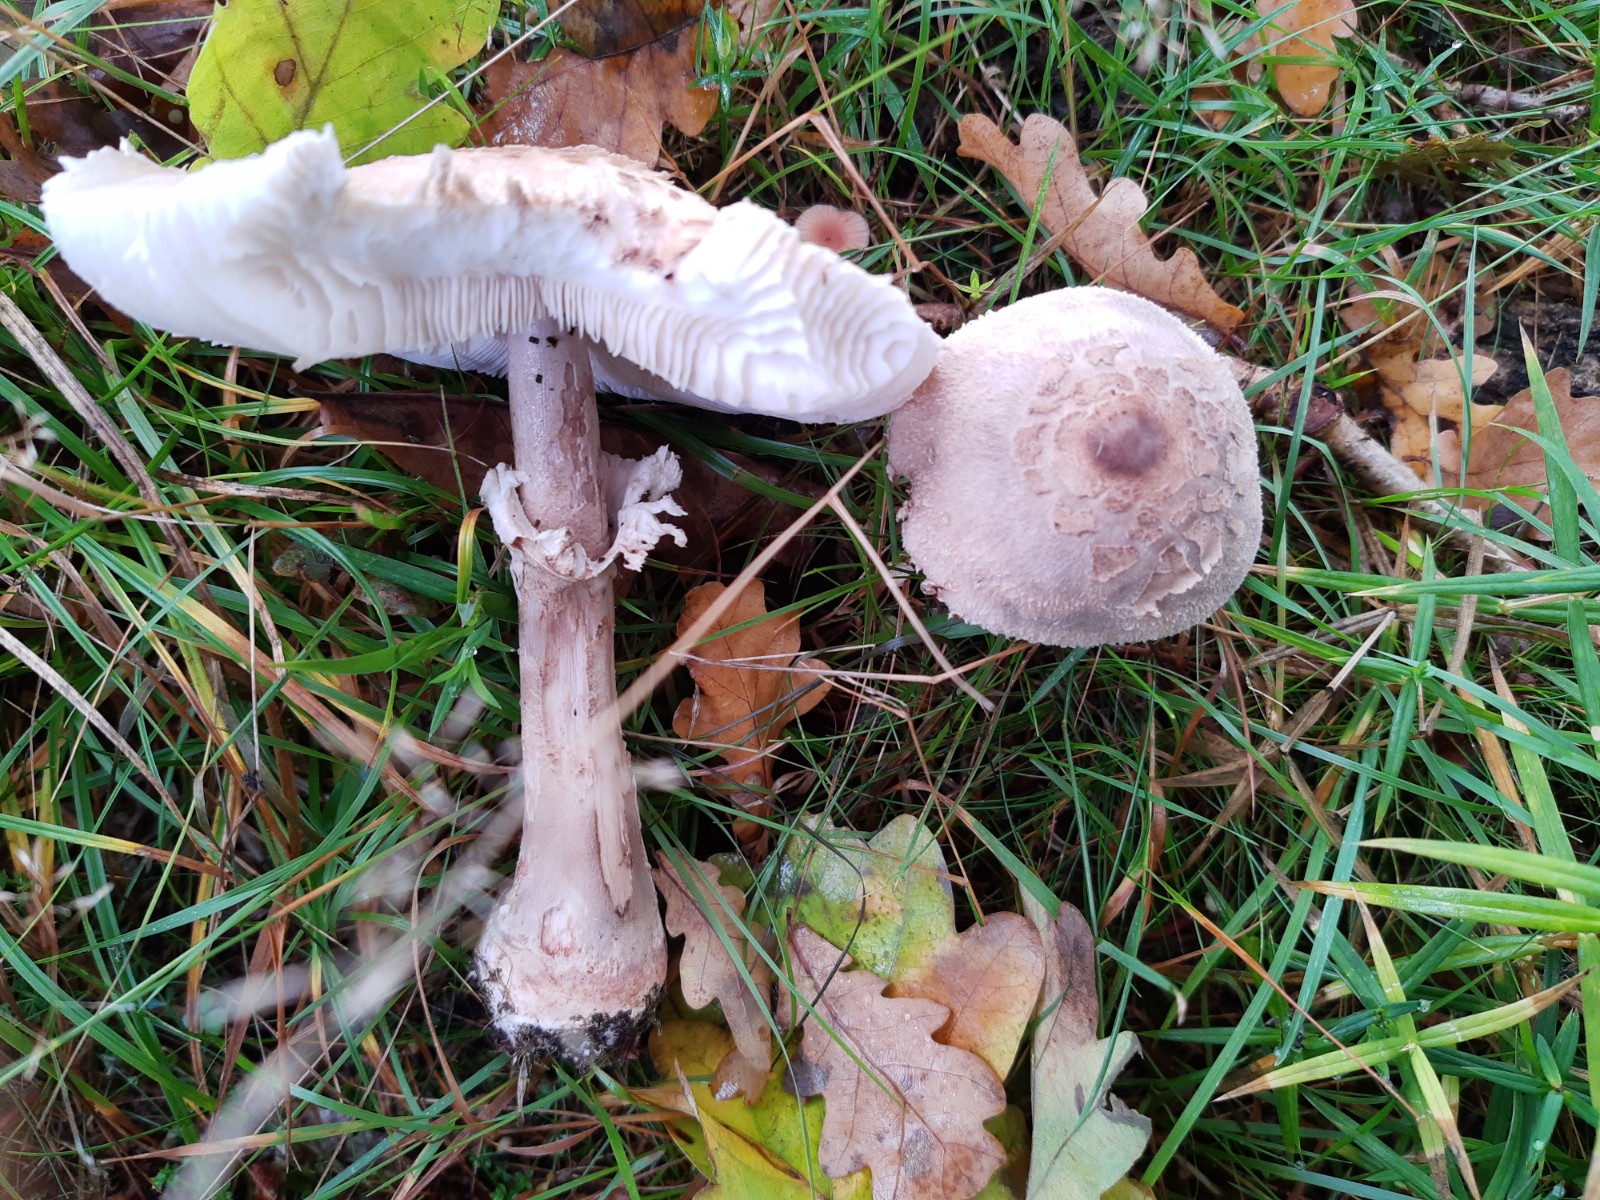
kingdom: Fungi
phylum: Basidiomycota
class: Agaricomycetes
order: Agaricales
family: Agaricaceae
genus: Macrolepiota
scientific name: Macrolepiota mastoidea
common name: puklet kæmpeparasolhat
